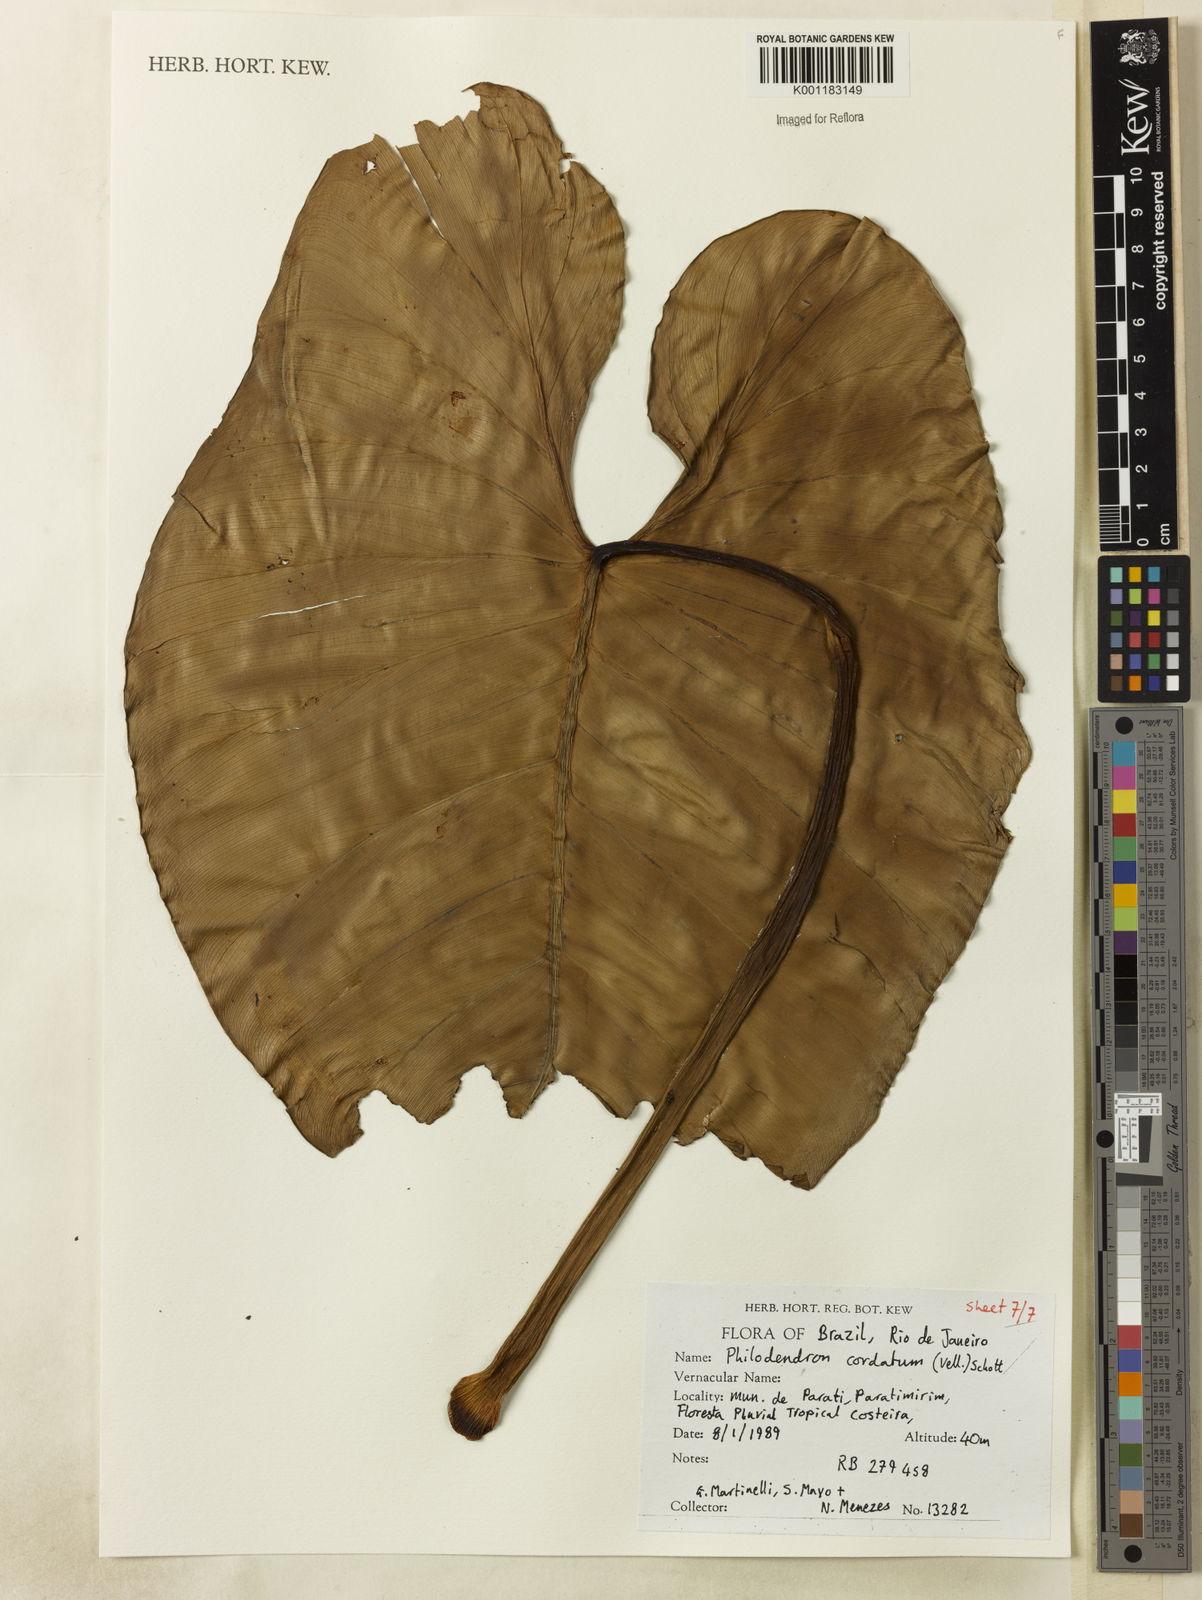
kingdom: Plantae
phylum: Tracheophyta
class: Liliopsida
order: Alismatales
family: Araceae
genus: Philodendron
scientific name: Philodendron cordatum
